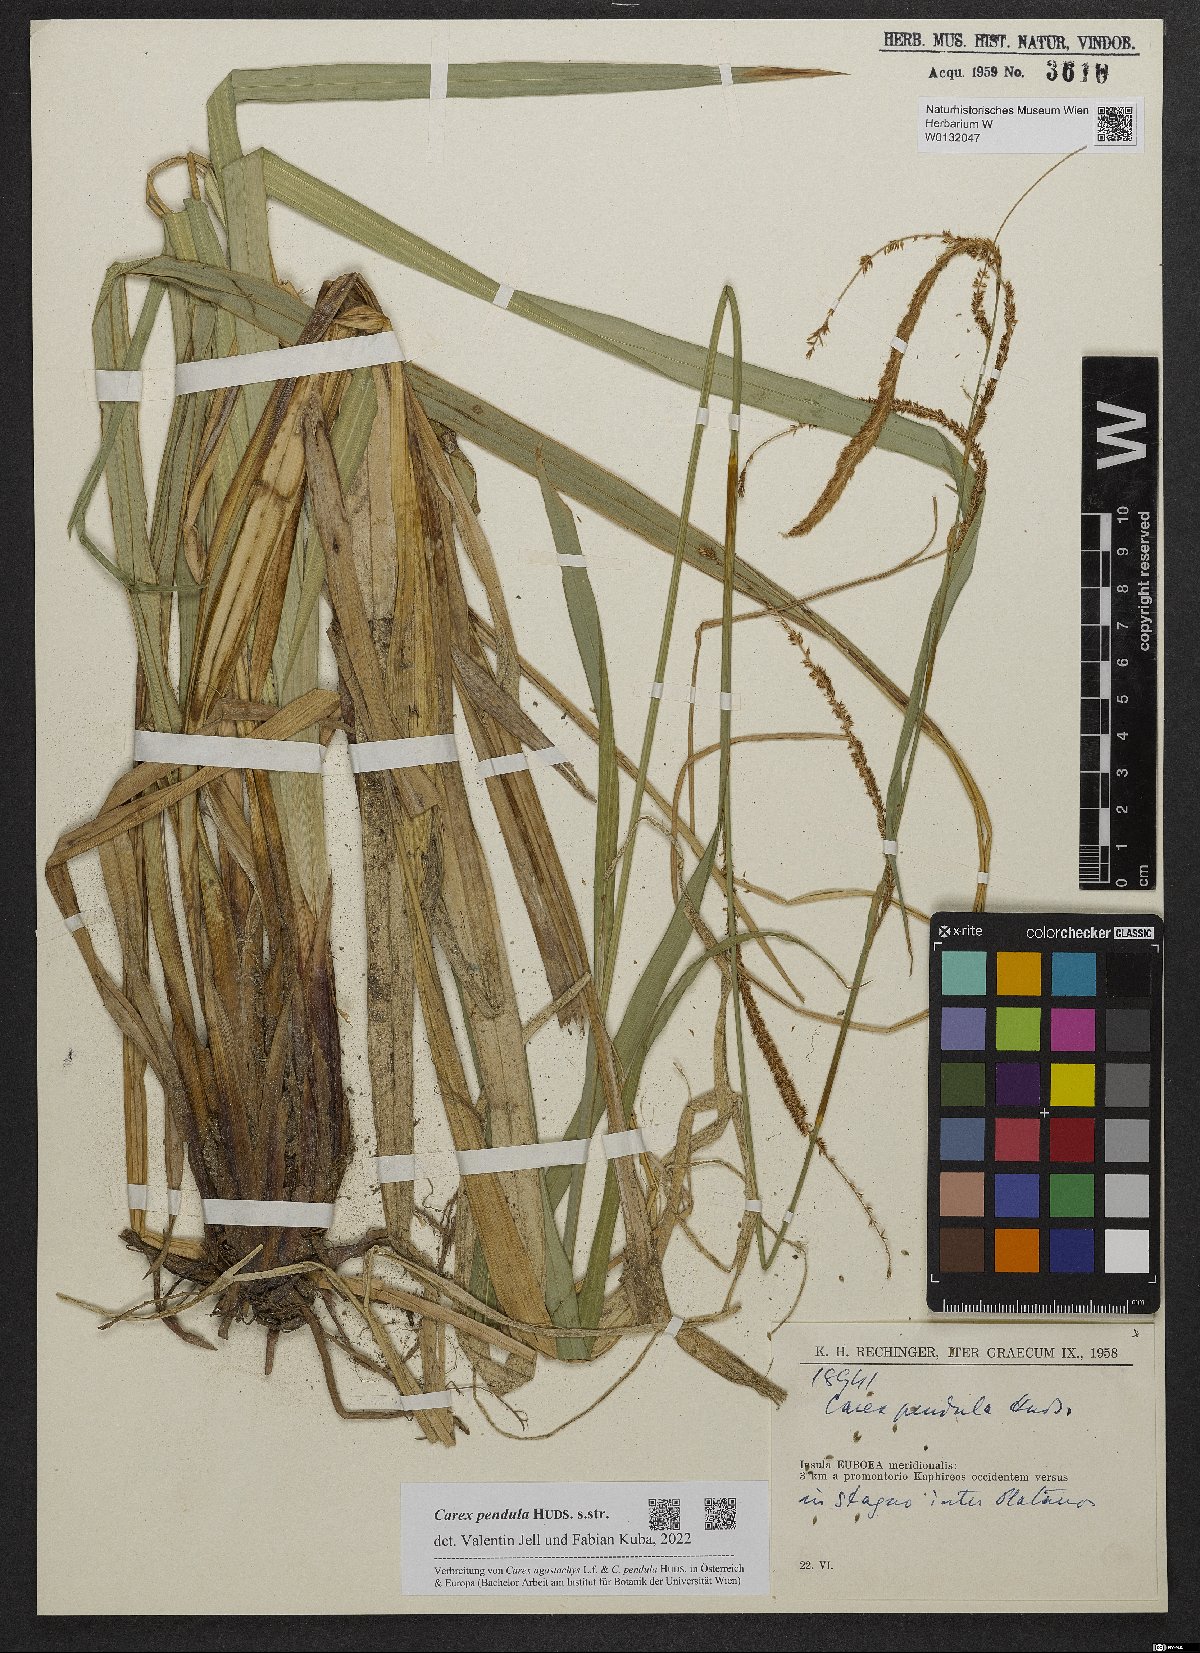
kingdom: Plantae
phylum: Tracheophyta
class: Liliopsida
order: Poales
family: Cyperaceae
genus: Carex
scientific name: Carex pendula
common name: Pendulous sedge
